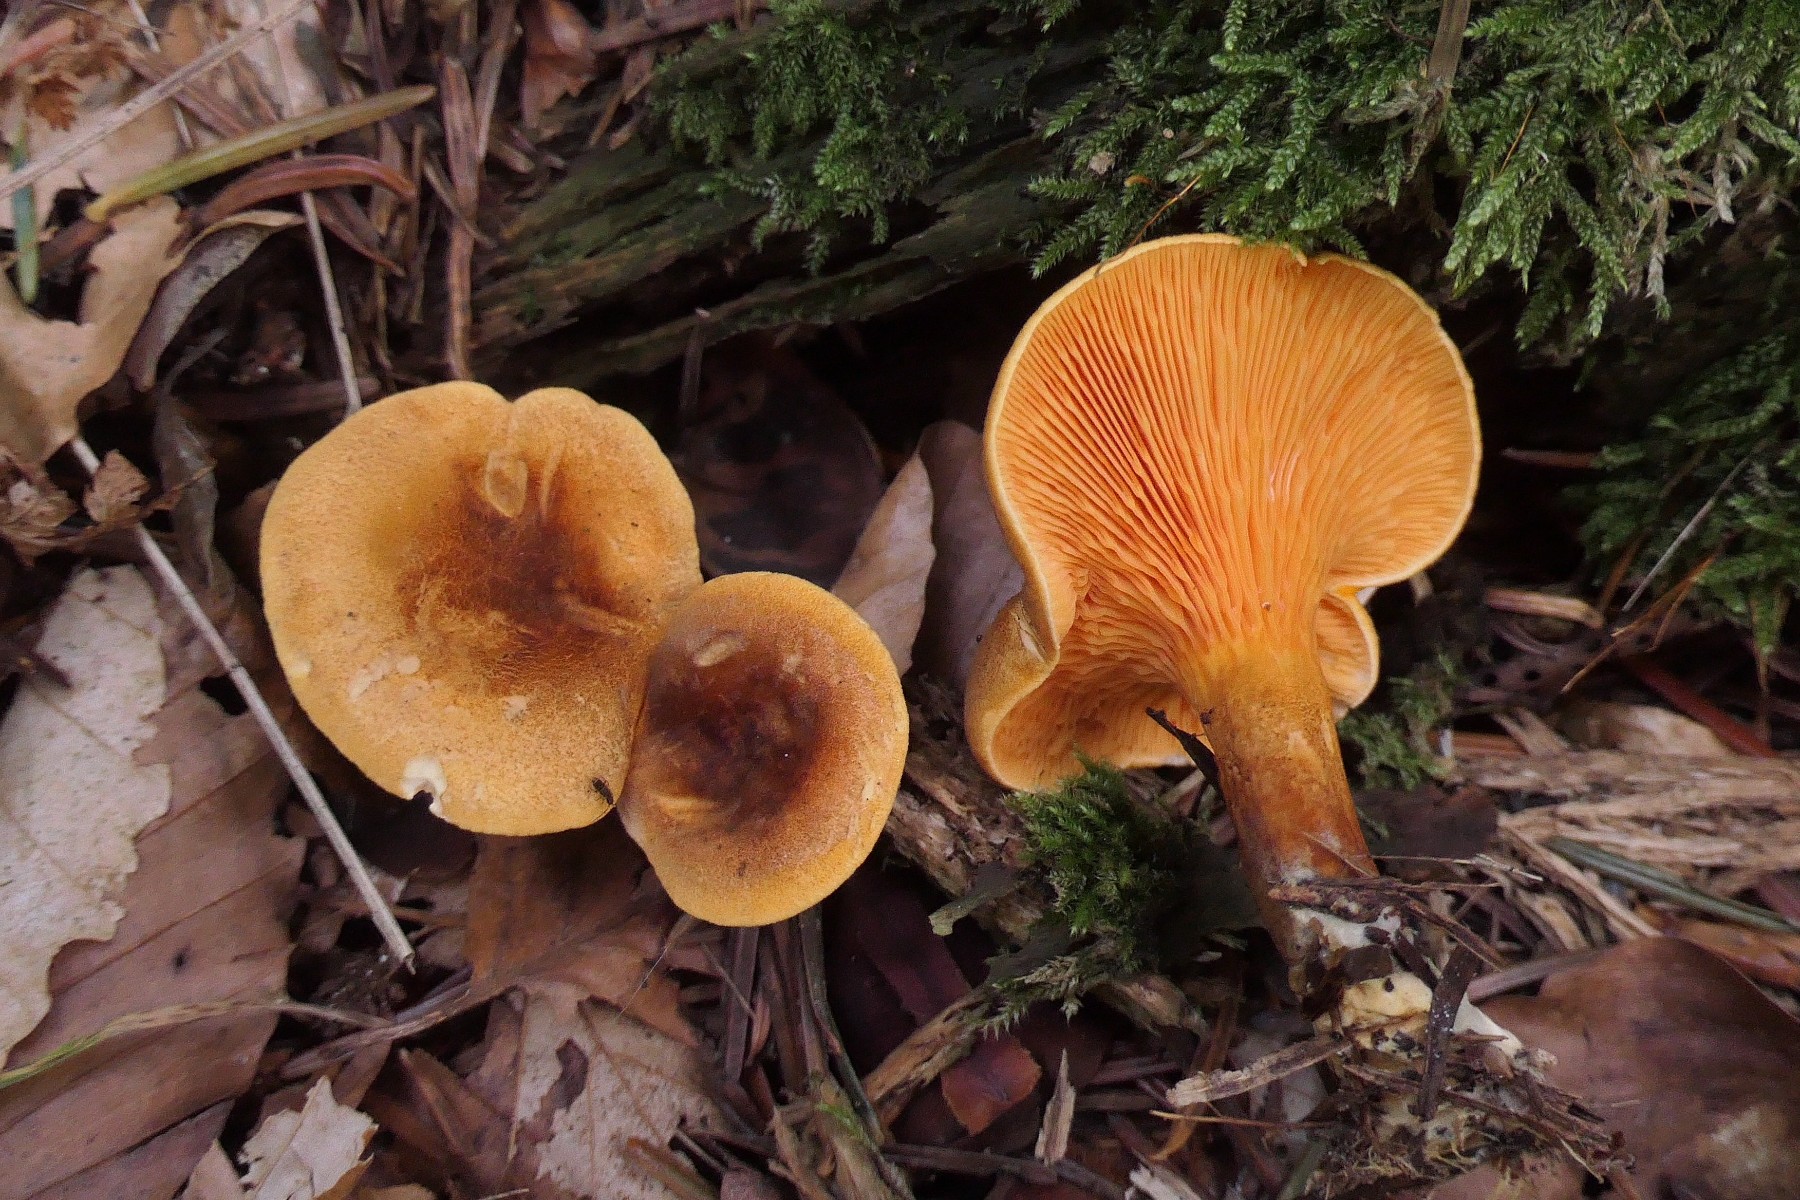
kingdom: Fungi
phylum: Basidiomycota
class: Agaricomycetes
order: Boletales
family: Hygrophoropsidaceae
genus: Hygrophoropsis
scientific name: Hygrophoropsis rufa
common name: brunfiltet orangekantarel
